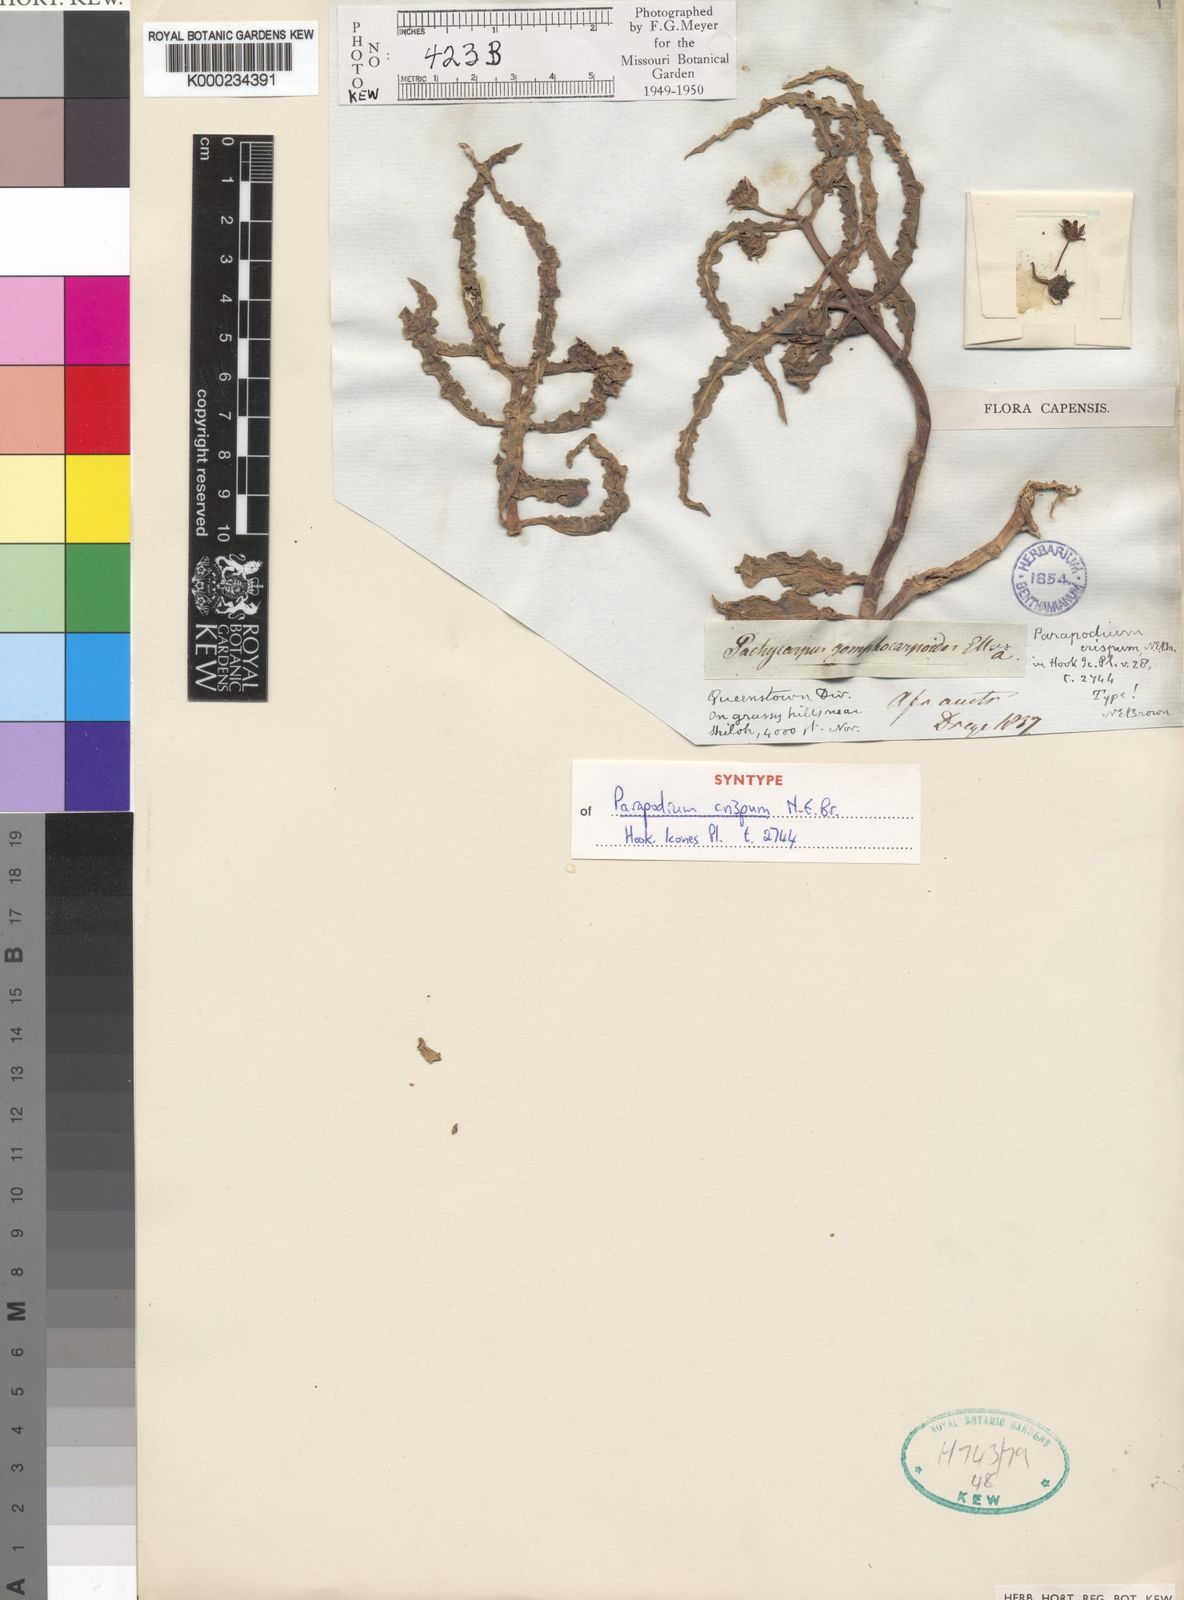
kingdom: Plantae
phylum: Tracheophyta
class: Magnoliopsida
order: Gentianales
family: Asclepiadaceae
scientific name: Asclepiadaceae
